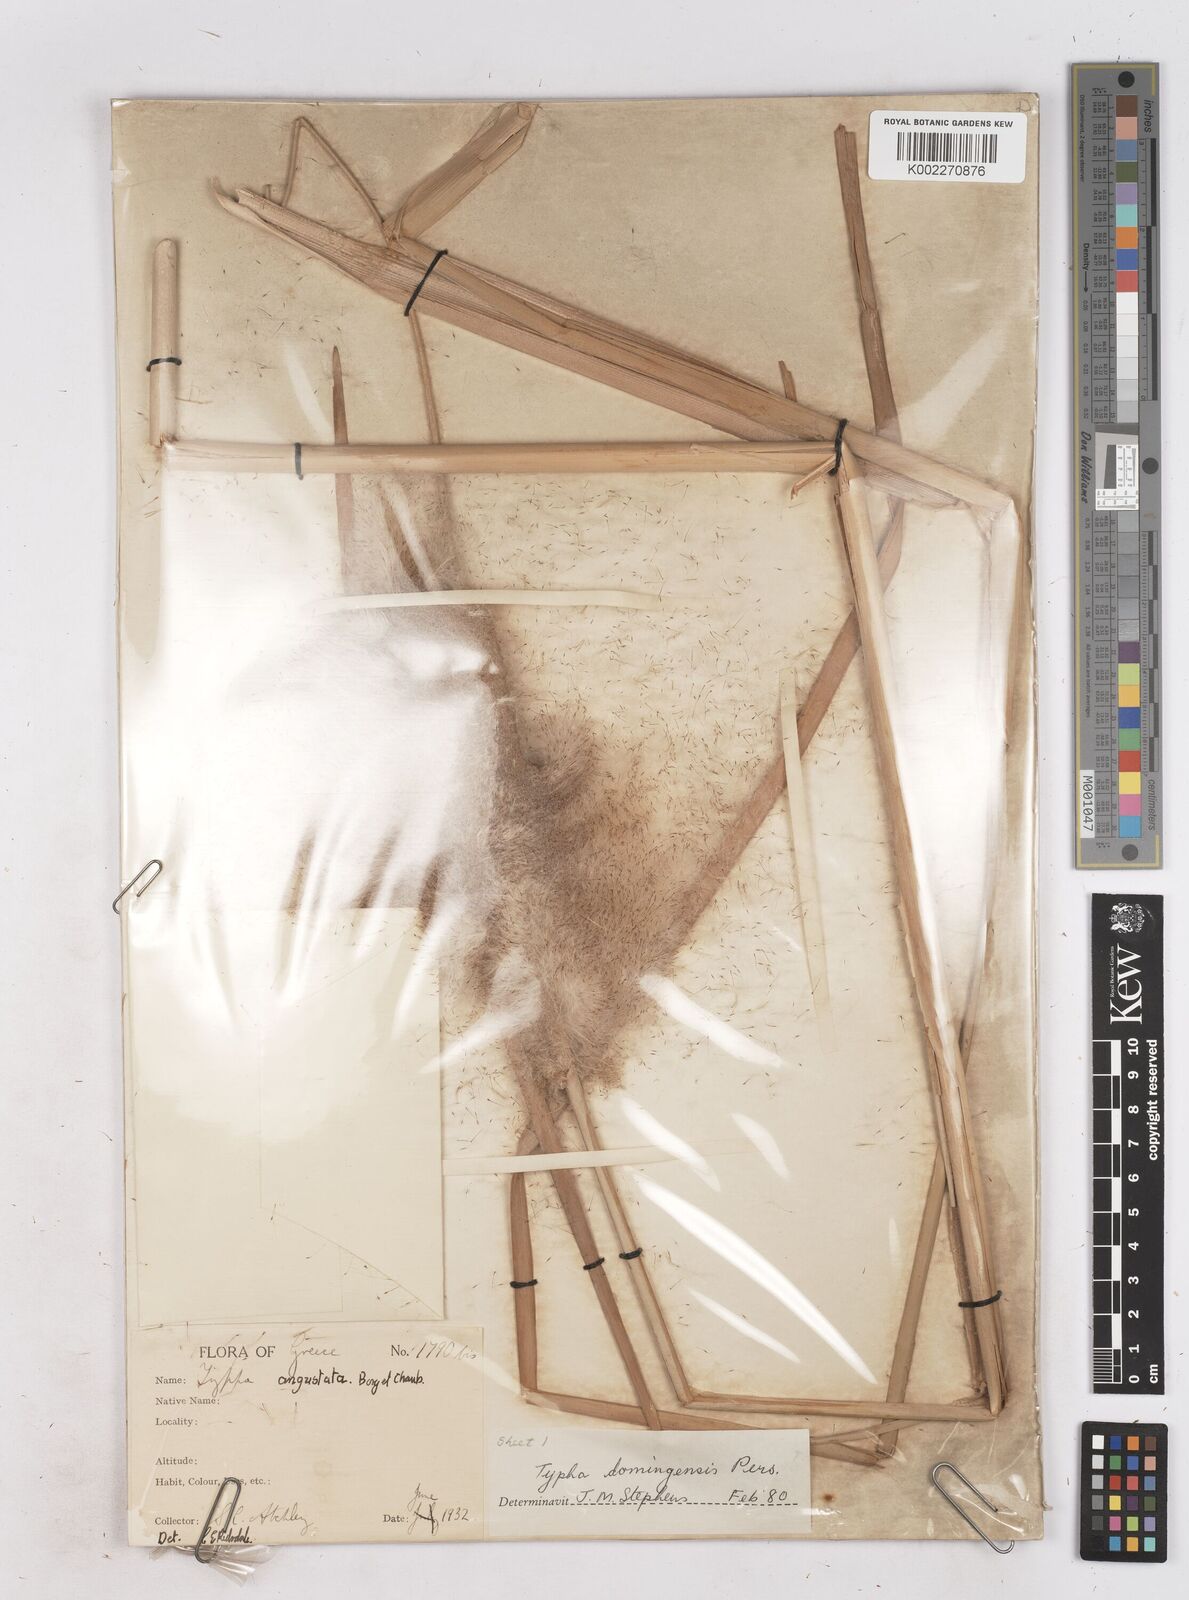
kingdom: Plantae
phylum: Tracheophyta
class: Liliopsida
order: Poales
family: Typhaceae
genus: Typha
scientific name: Typha domingensis
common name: Southern cattail
